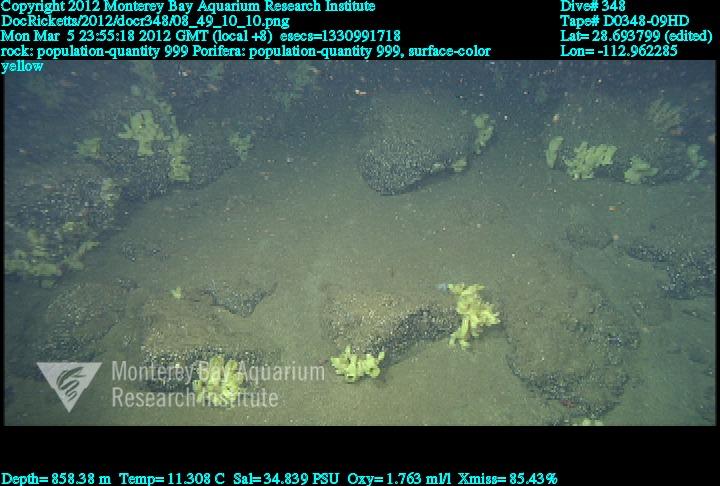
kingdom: Animalia
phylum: Porifera
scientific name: Porifera
